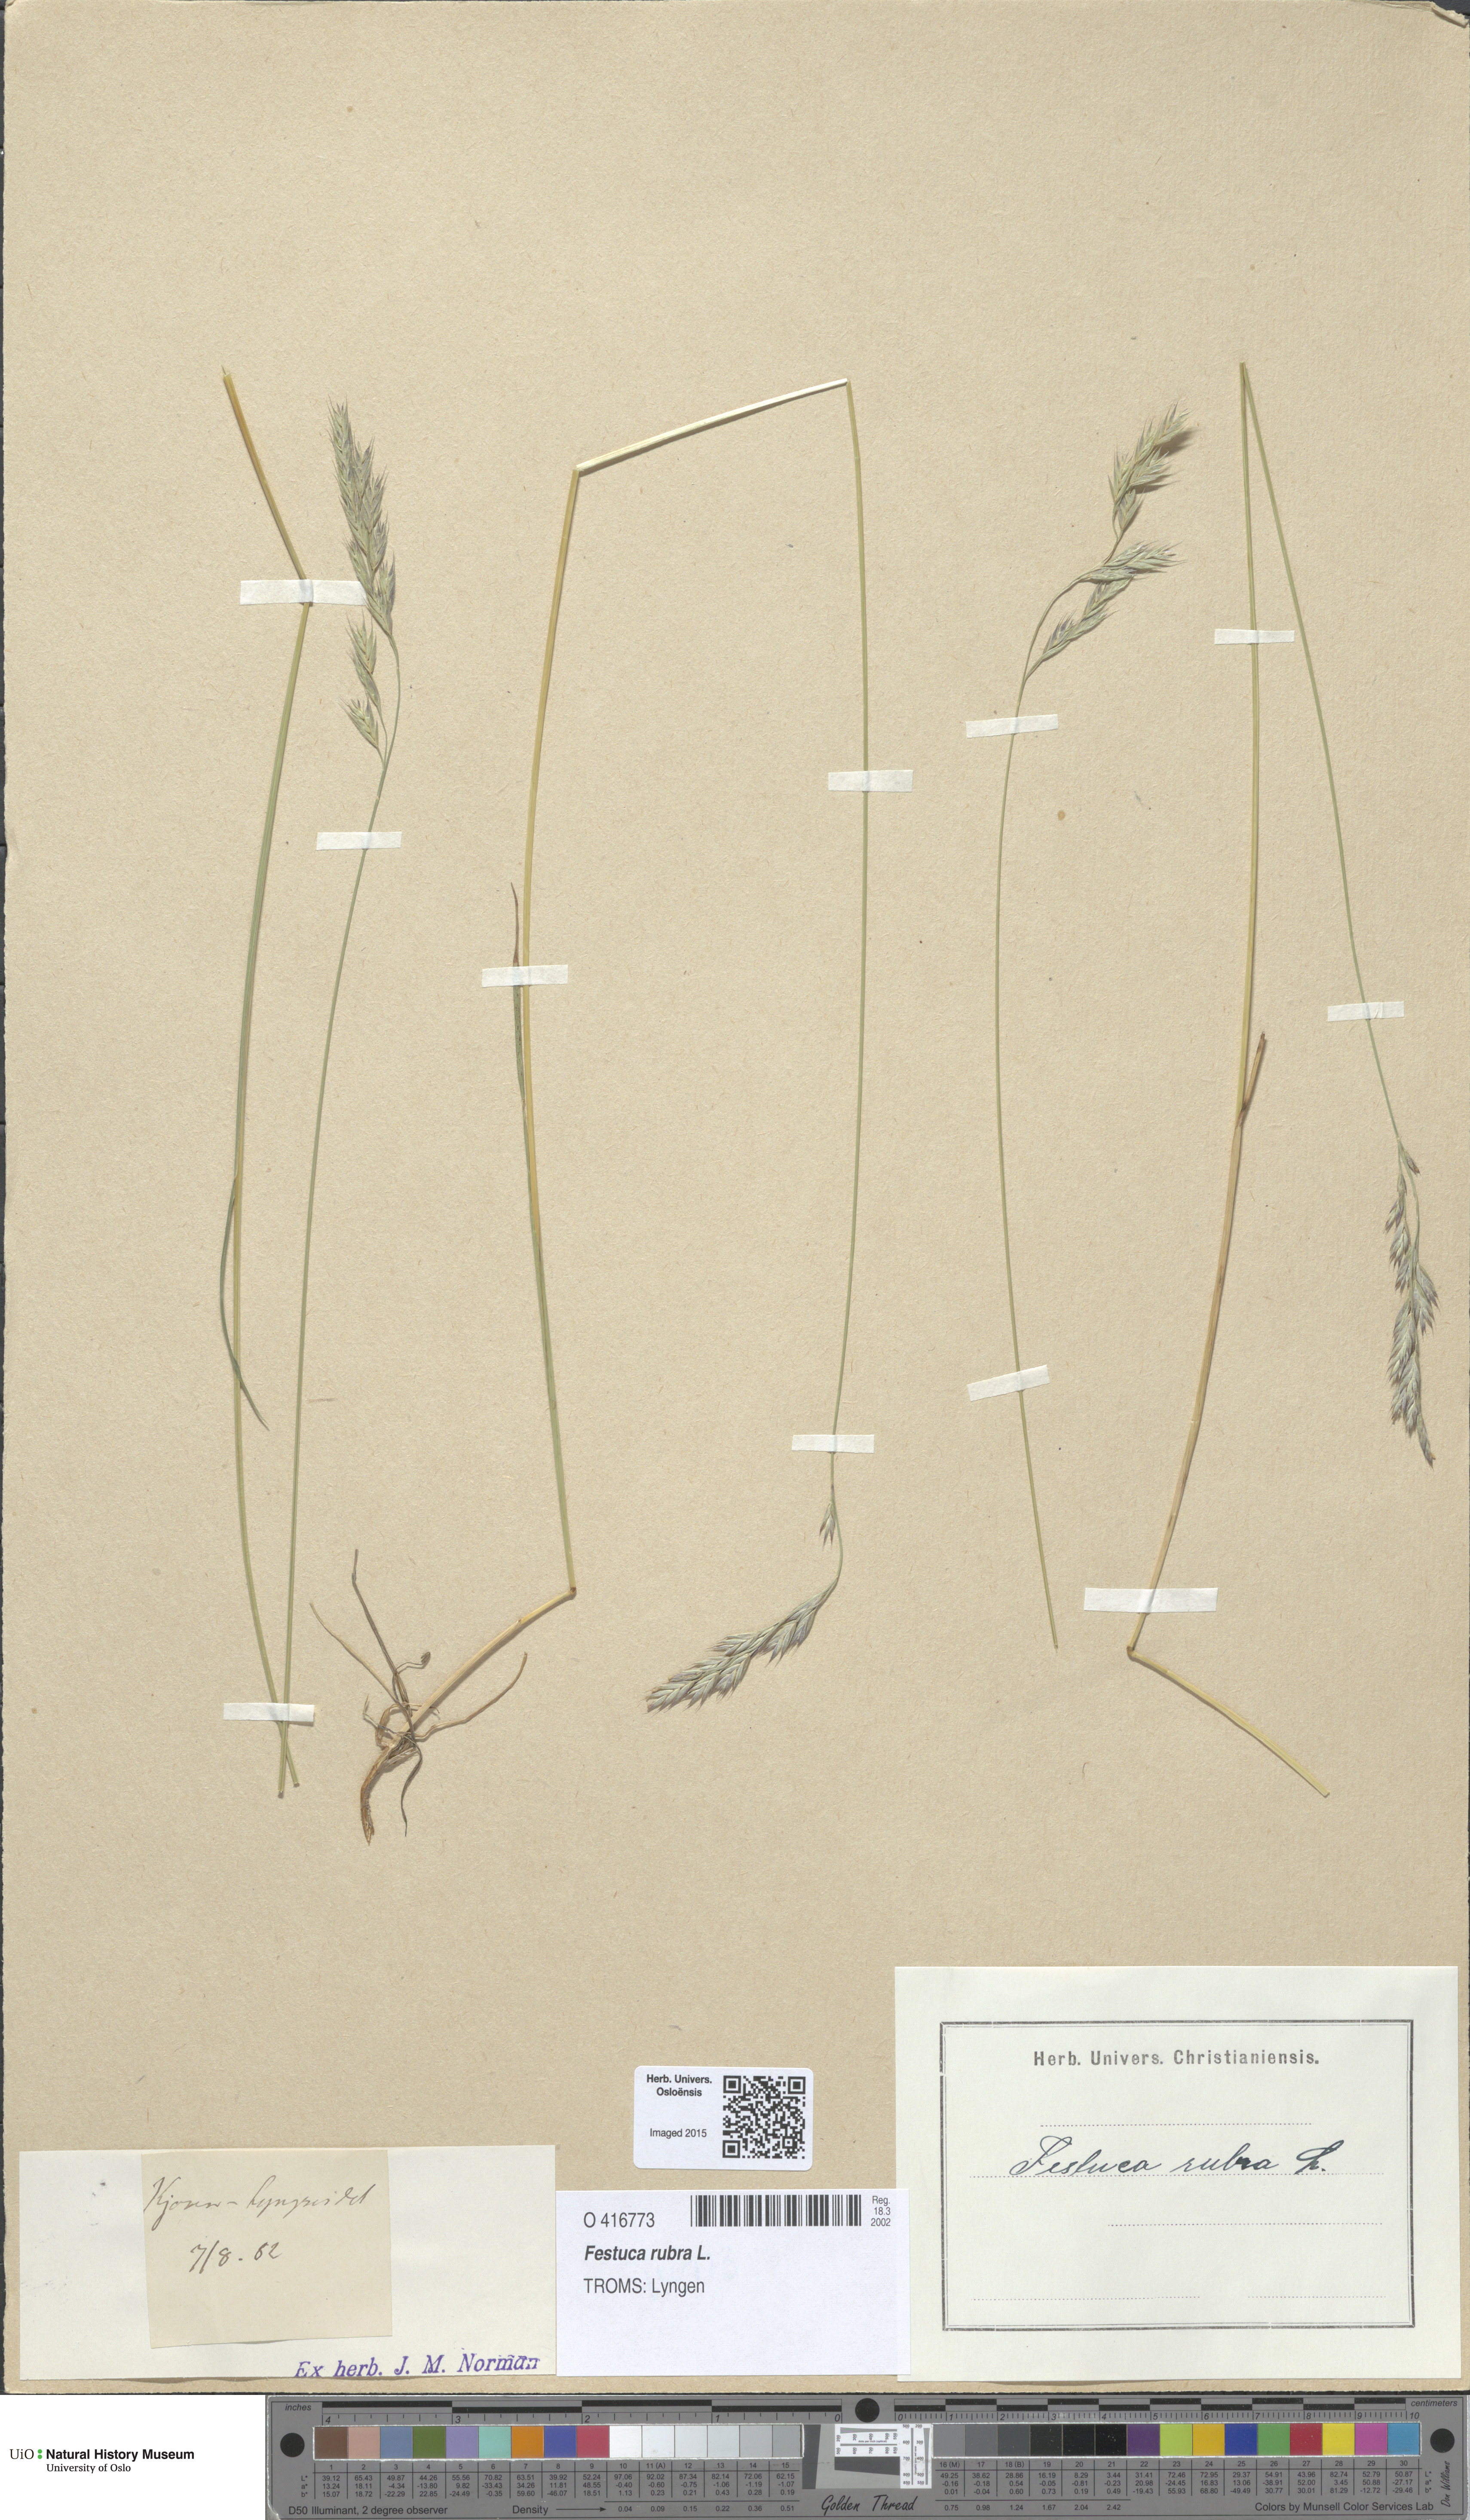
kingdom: Plantae
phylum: Tracheophyta
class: Liliopsida
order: Poales
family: Poaceae
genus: Festuca
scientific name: Festuca rubra
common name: Red fescue
